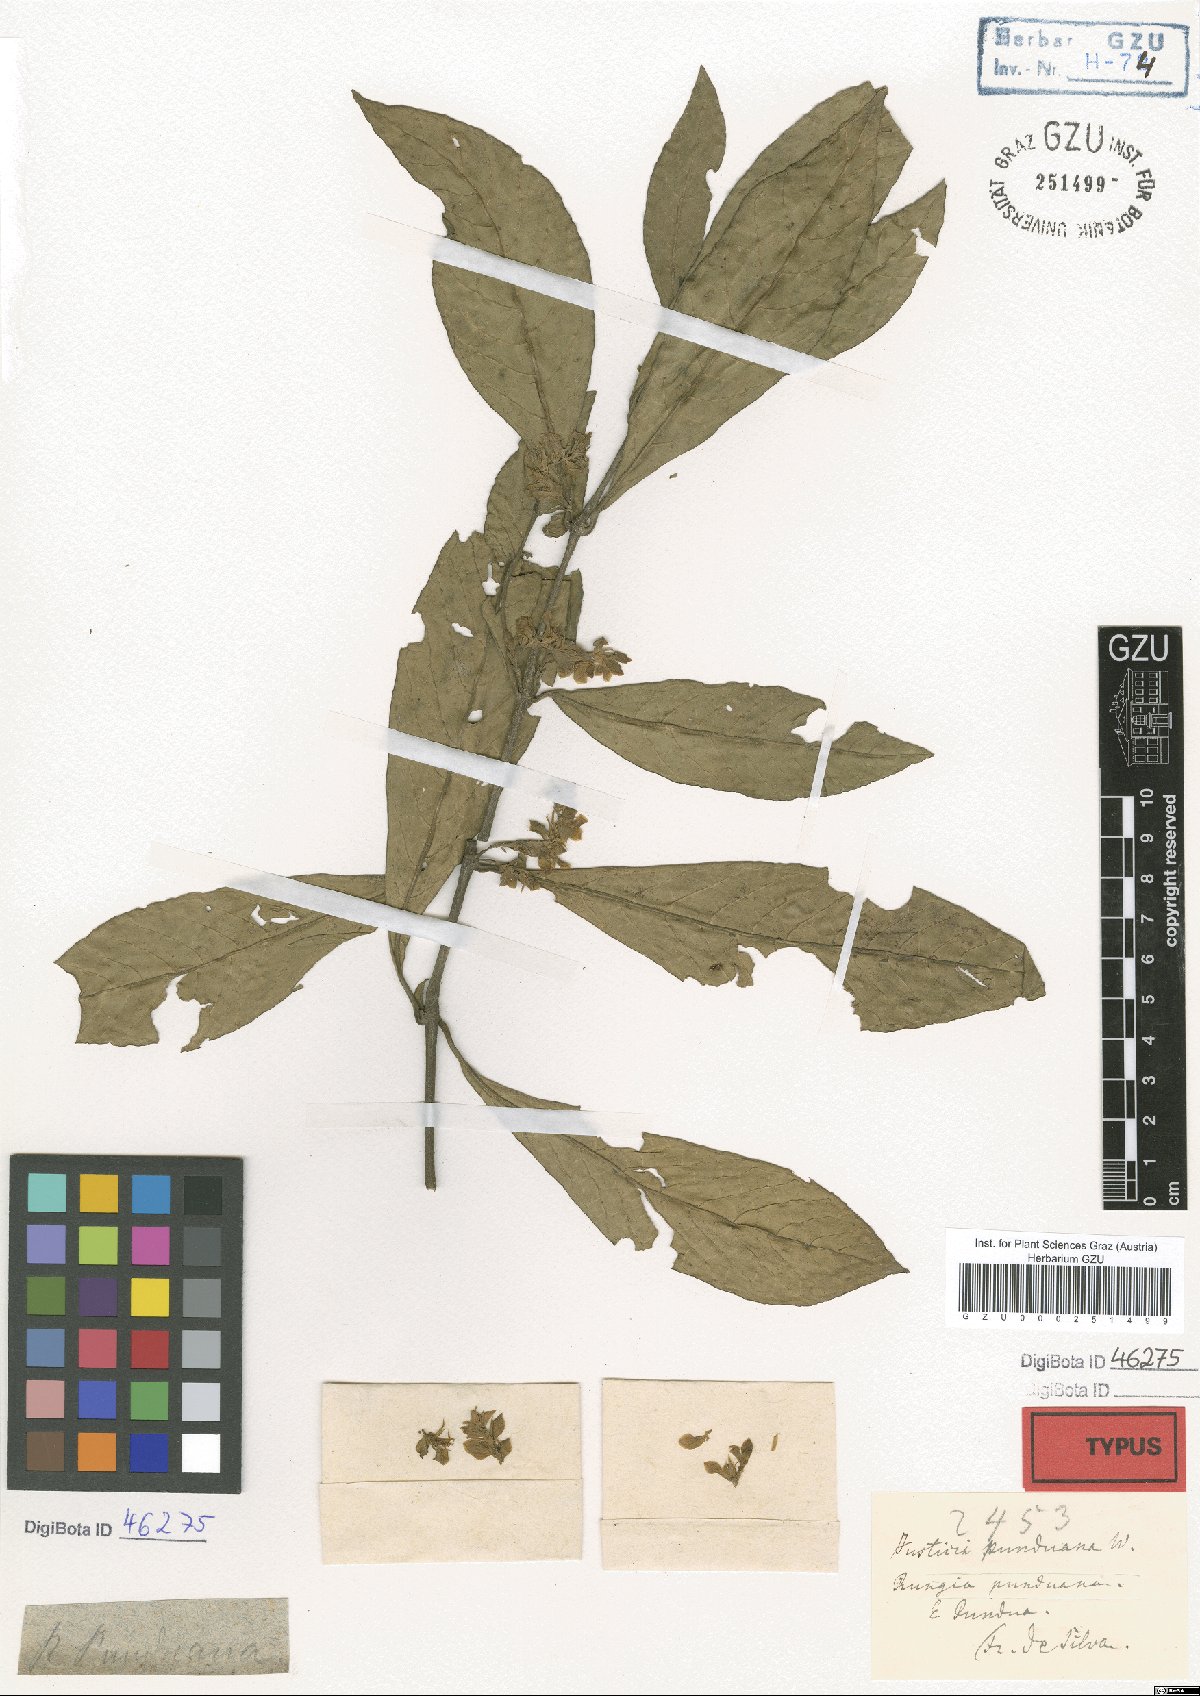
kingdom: Plantae
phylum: Tracheophyta
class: Magnoliopsida
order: Lamiales
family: Acanthaceae
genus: Rungia
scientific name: Rungia punduana
